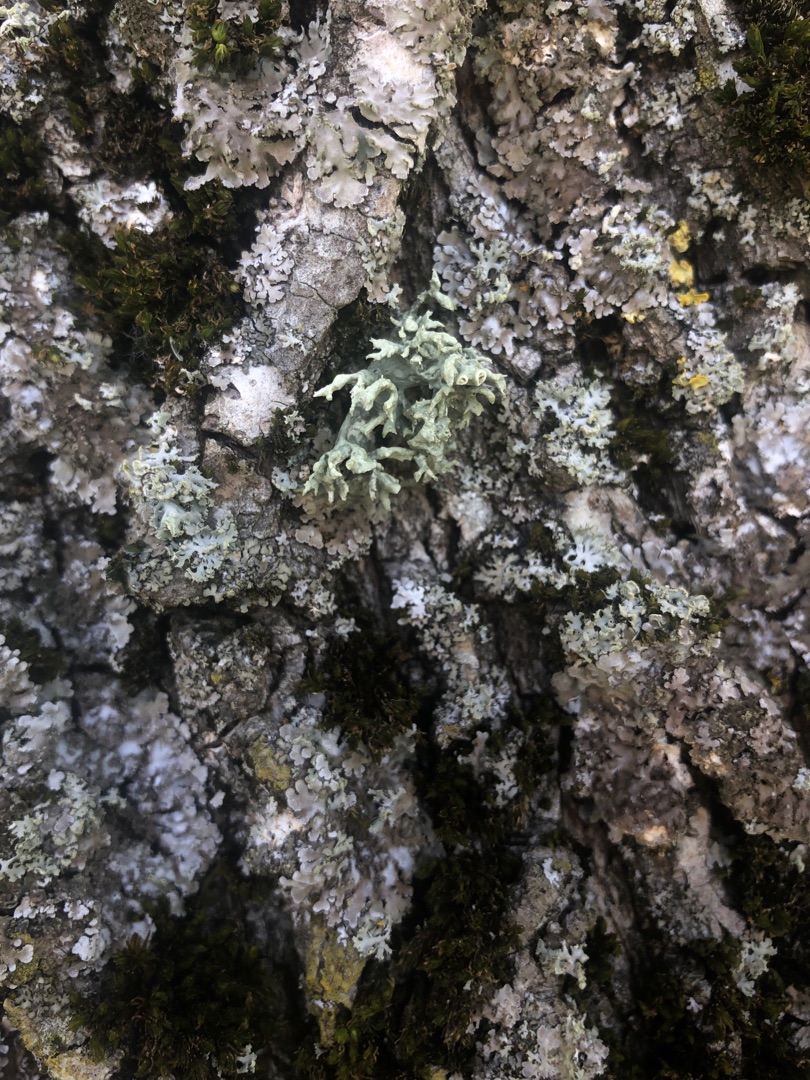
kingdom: Fungi
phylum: Ascomycota
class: Lecanoromycetes
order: Lecanorales
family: Ramalinaceae
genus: Ramalina
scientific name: Ramalina fastigiata
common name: Tue-grenlav
